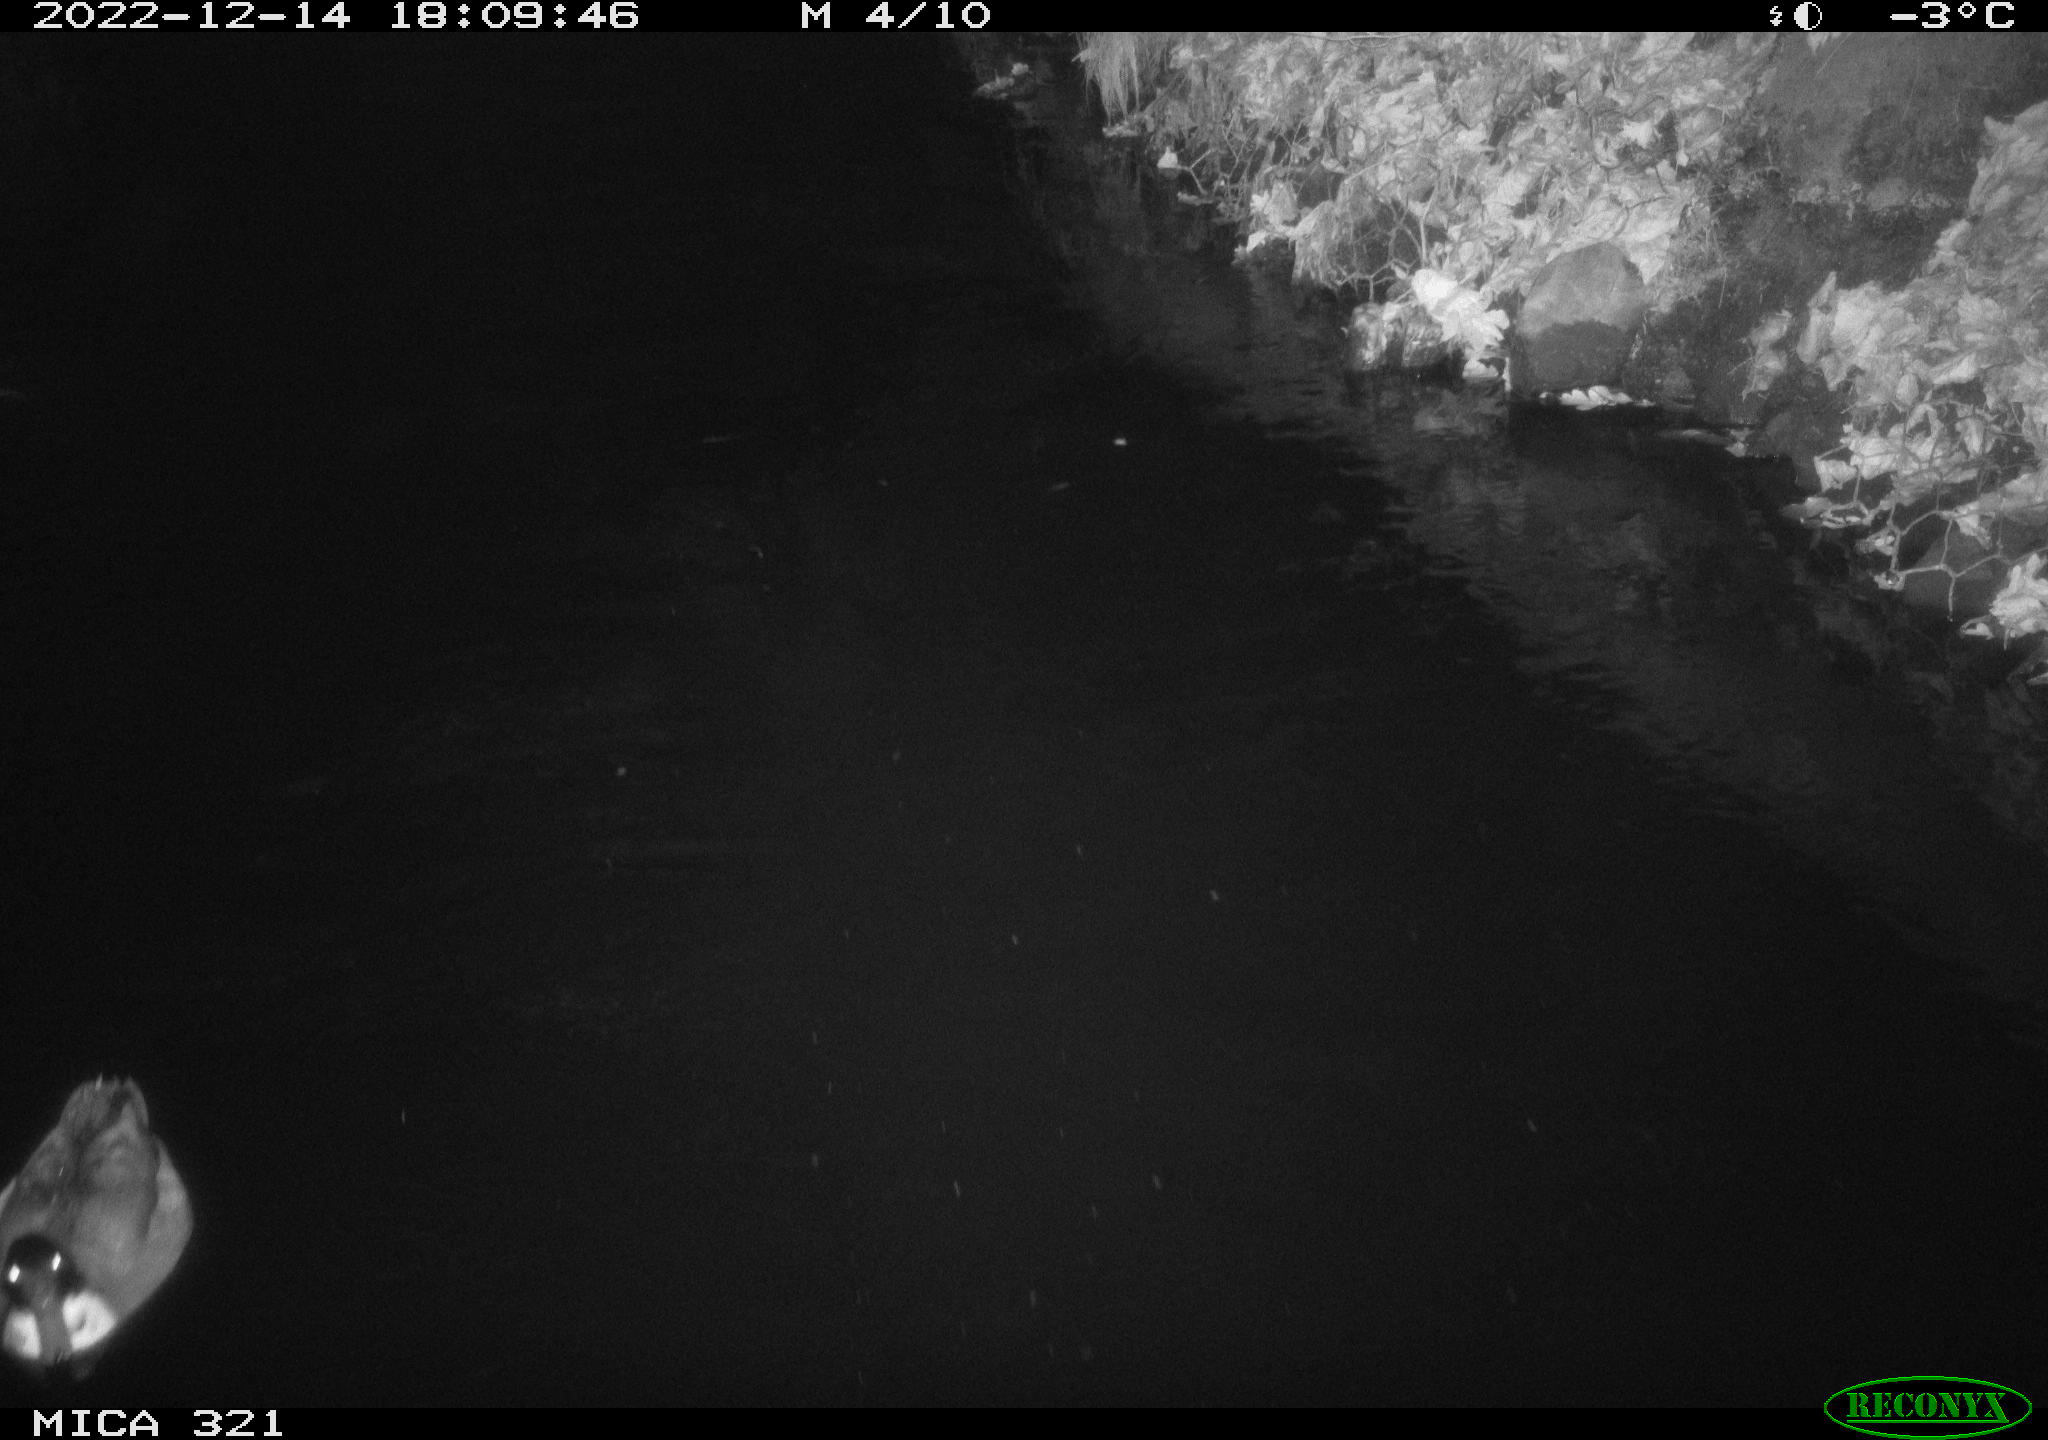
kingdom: Animalia
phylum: Chordata
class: Aves
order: Anseriformes
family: Anatidae
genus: Anas
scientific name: Anas
